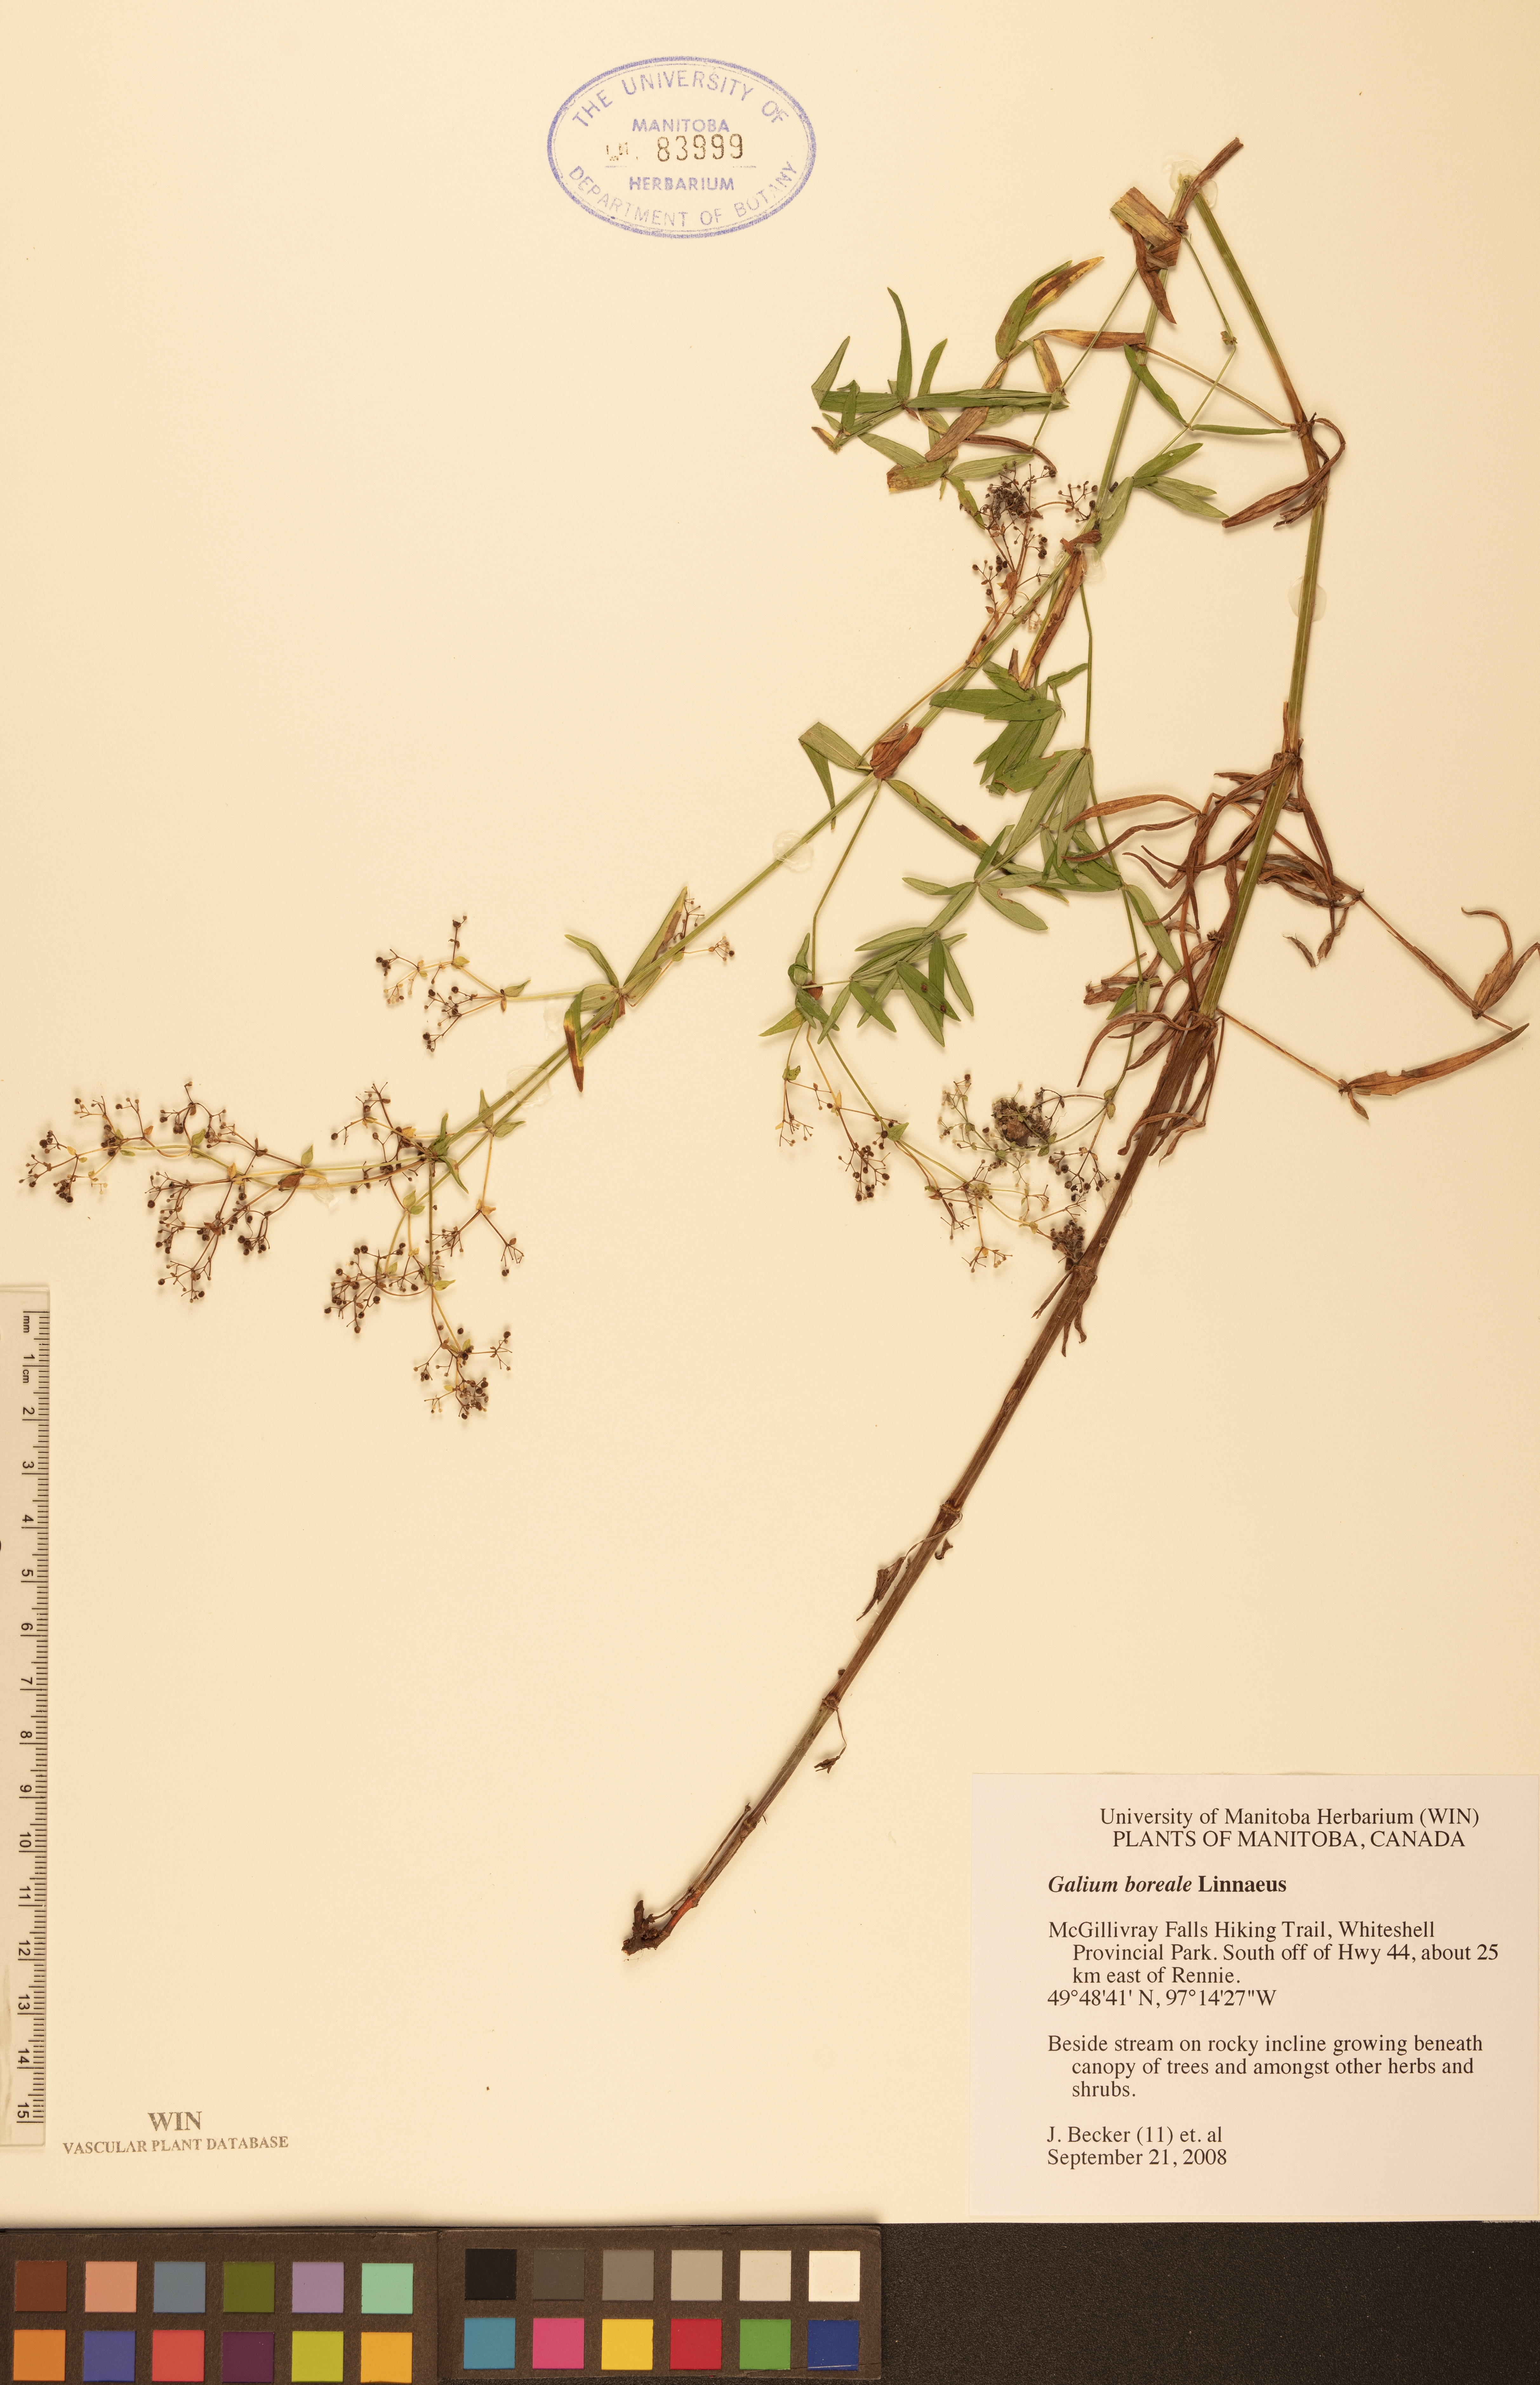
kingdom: Plantae
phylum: Tracheophyta
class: Magnoliopsida
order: Gentianales
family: Rubiaceae
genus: Galium
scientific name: Galium boreale
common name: Northern bedstraw
